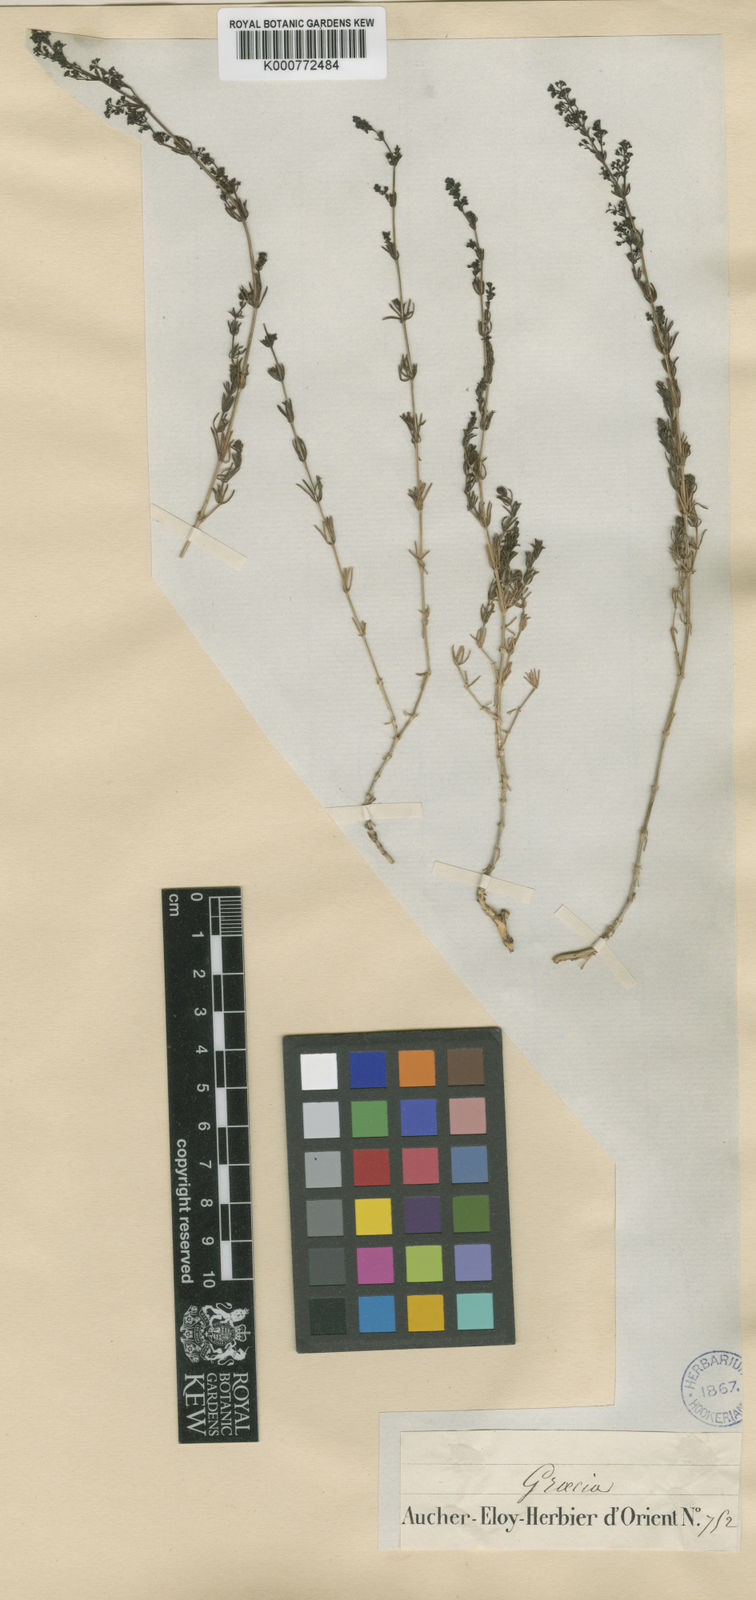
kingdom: Plantae
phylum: Tracheophyta
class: Magnoliopsida
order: Gentianales
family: Rubiaceae
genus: Galium
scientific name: Galium incanum
